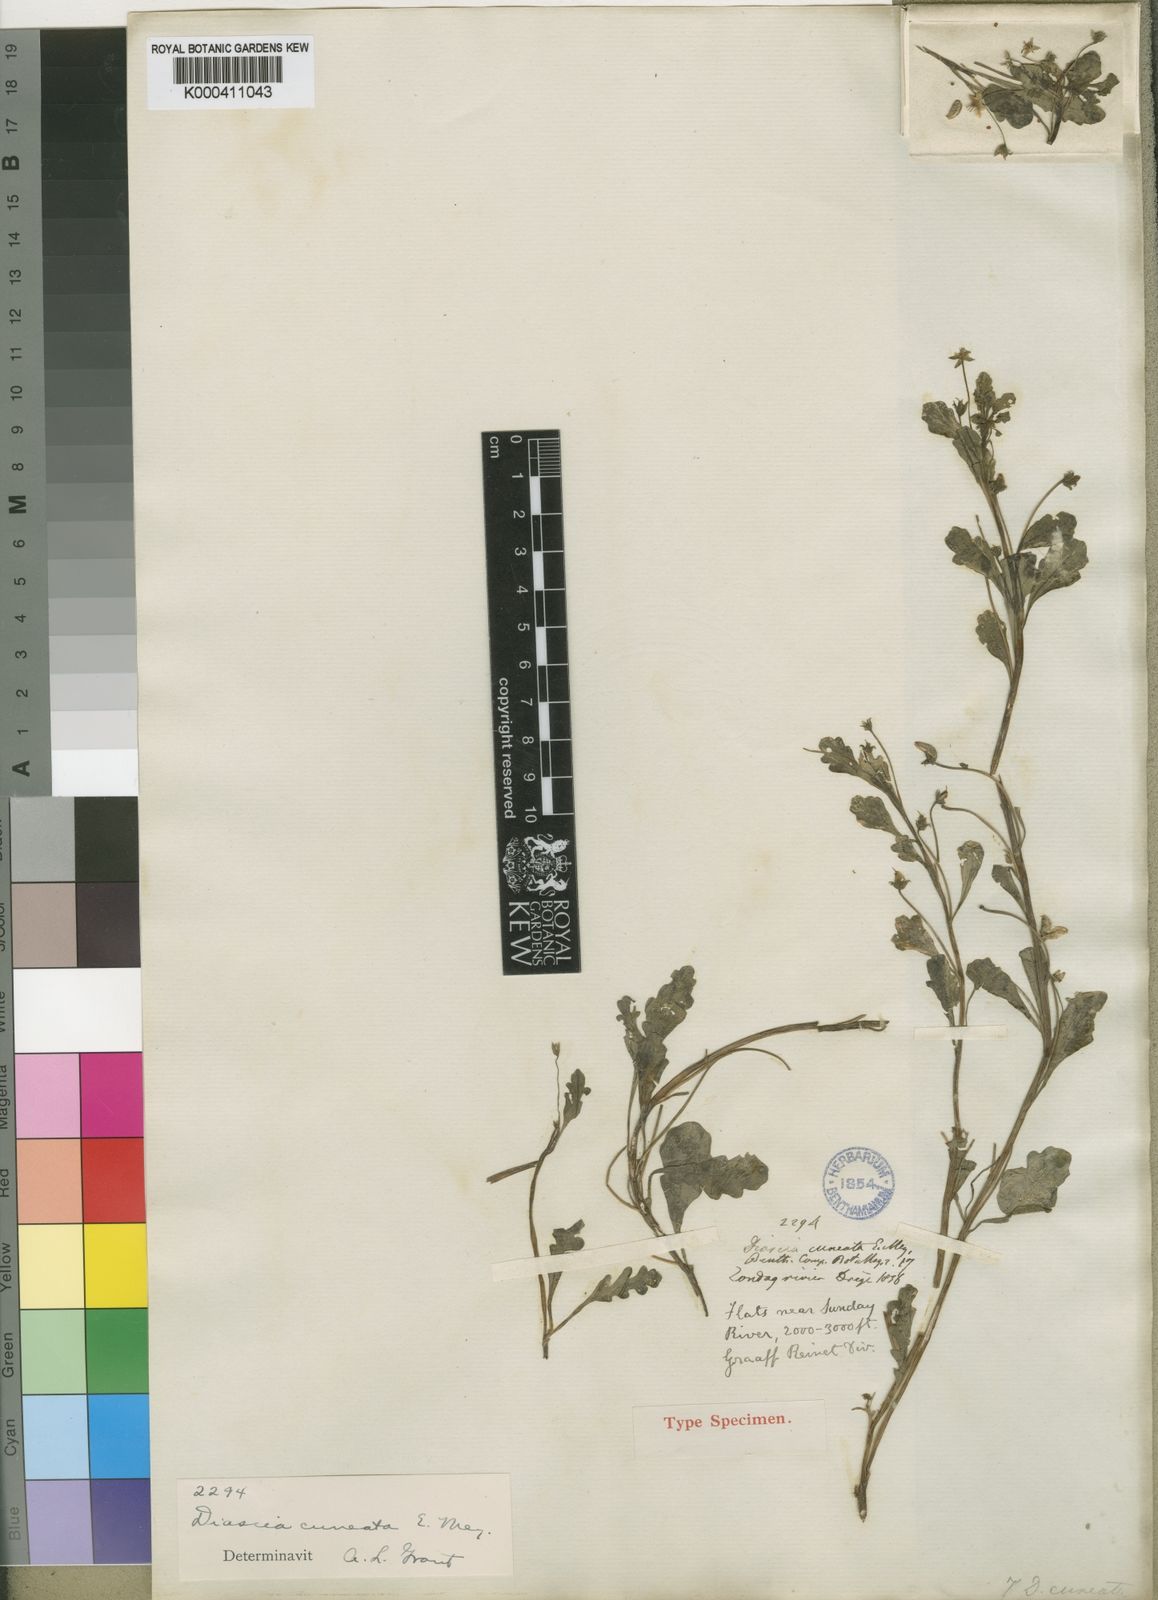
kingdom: Plantae
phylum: Tracheophyta
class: Magnoliopsida
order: Lamiales
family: Scrophulariaceae
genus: Diascia
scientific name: Diascia cuneata
